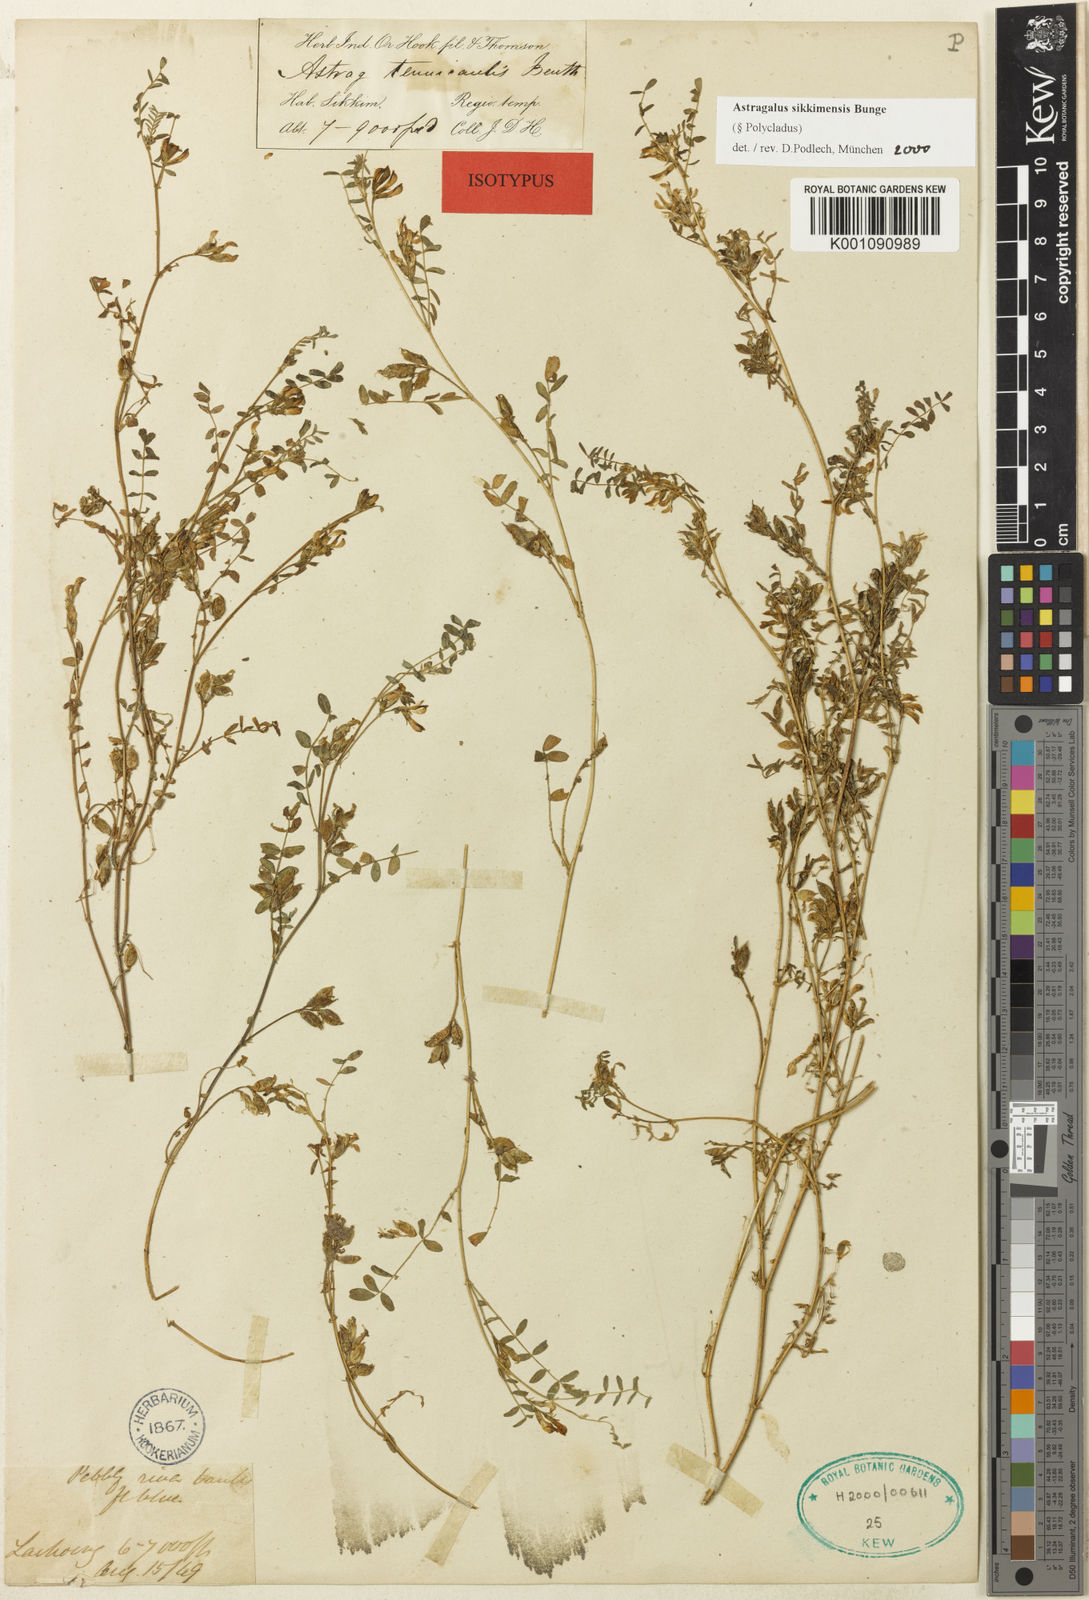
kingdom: Plantae
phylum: Tracheophyta
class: Magnoliopsida
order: Fabales
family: Fabaceae
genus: Astragalus
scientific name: Astragalus
